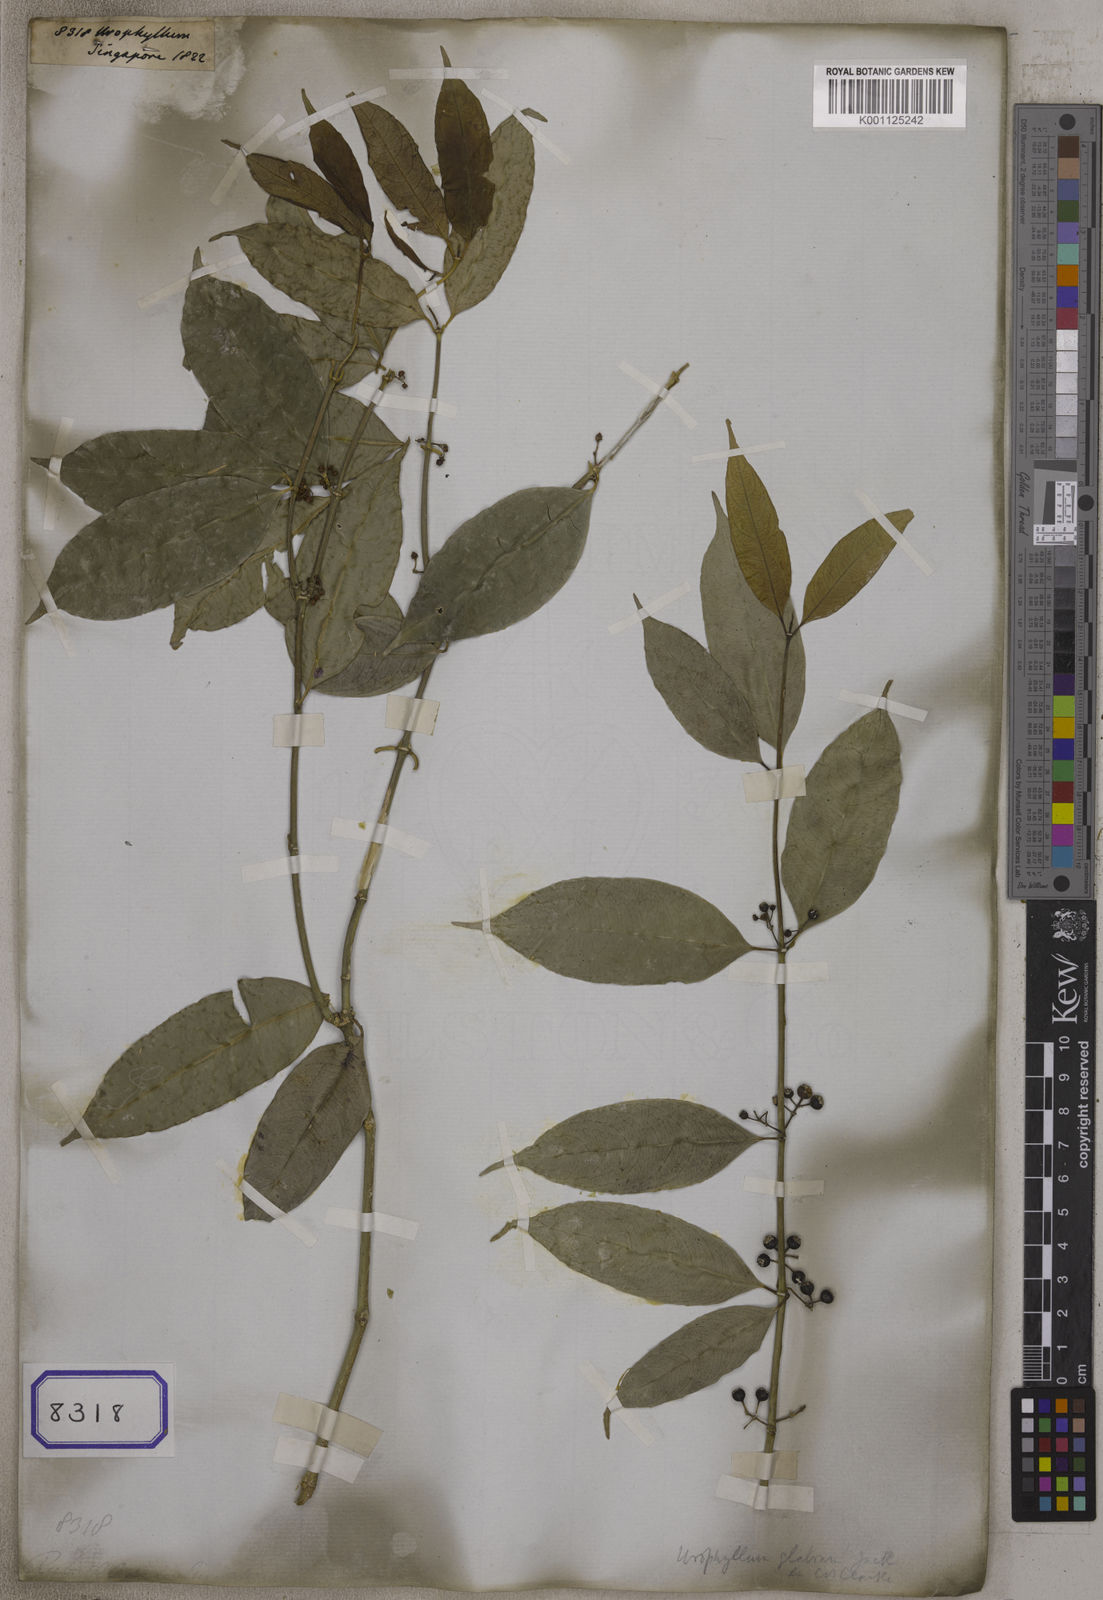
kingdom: Plantae
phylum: Tracheophyta
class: Magnoliopsida
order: Gentianales
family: Rubiaceae
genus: Urophyllum
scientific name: Urophyllum
